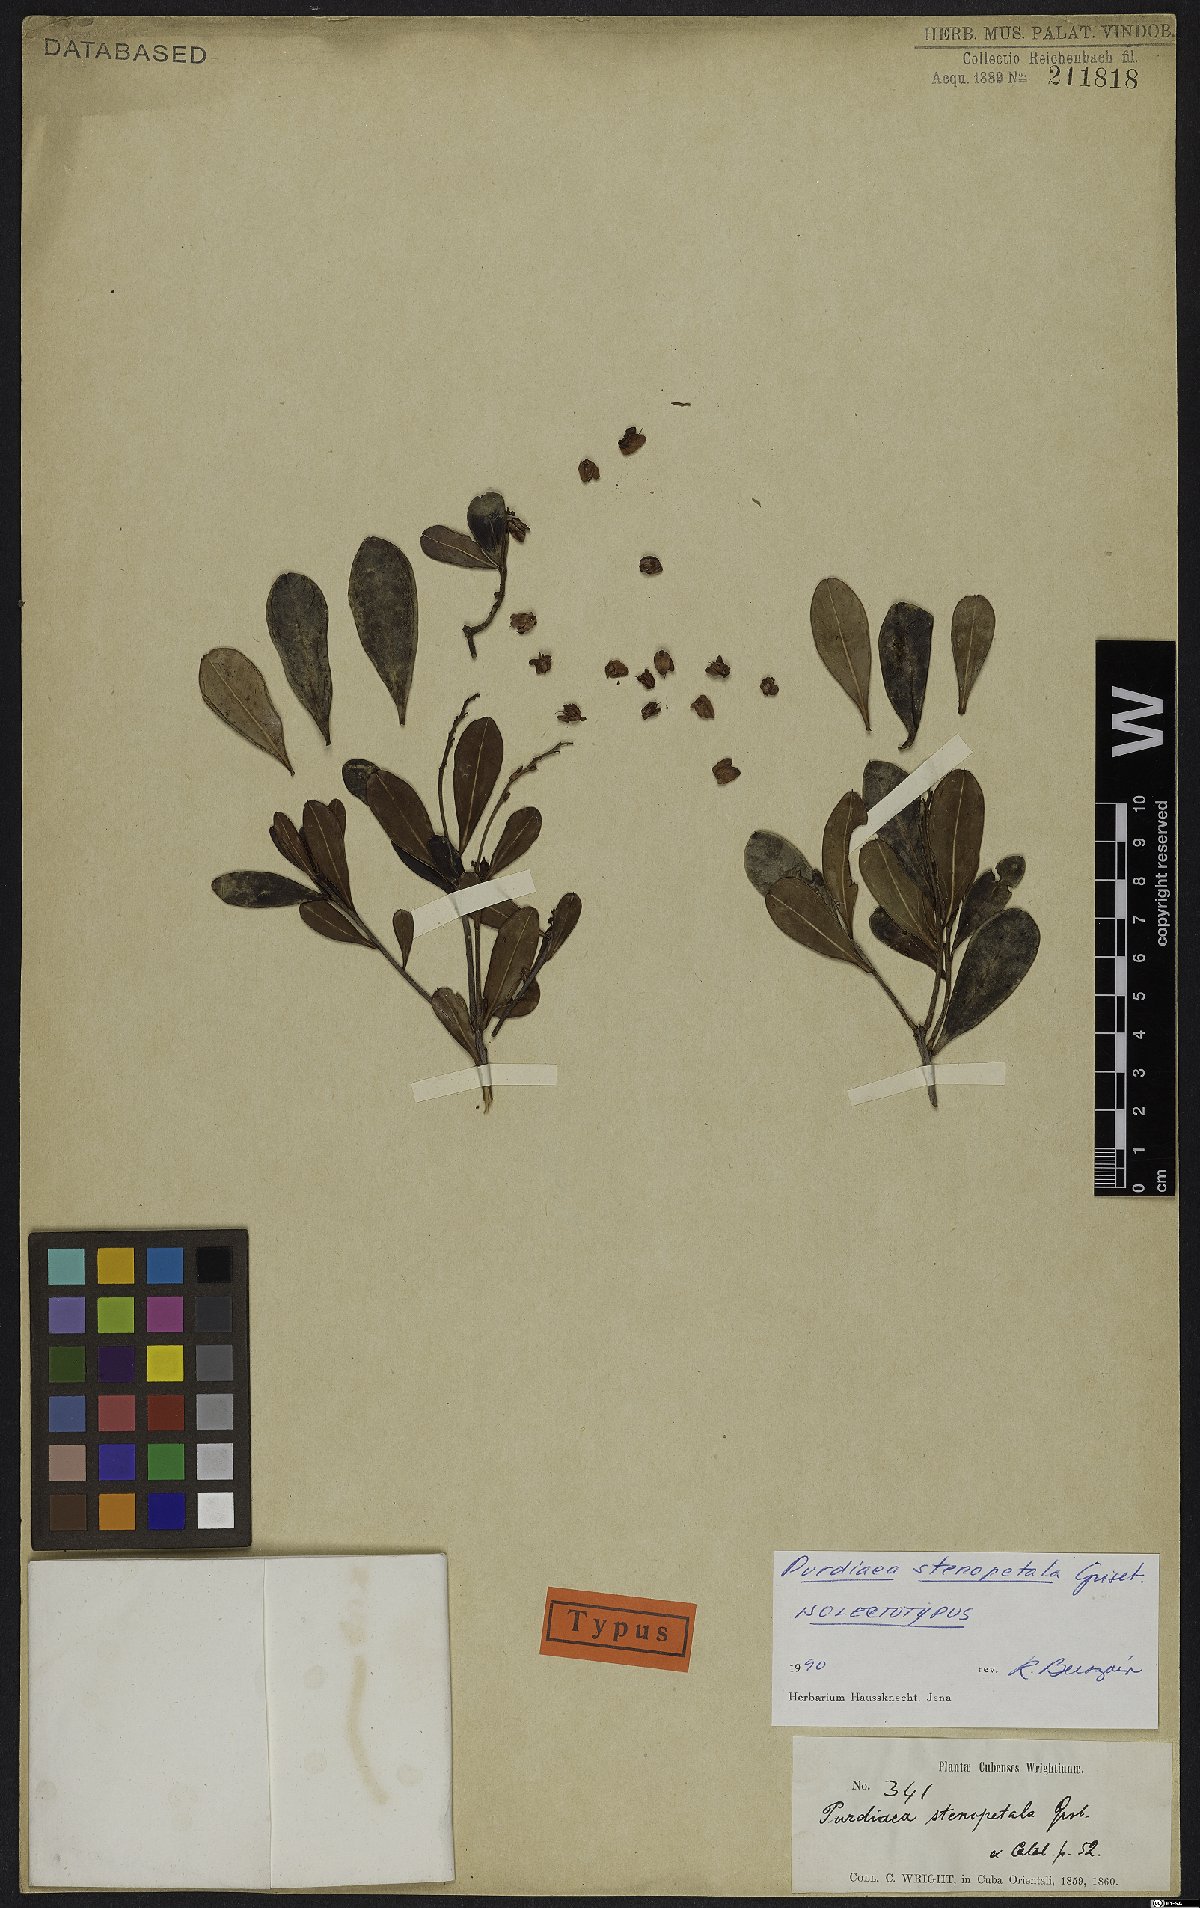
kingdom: Plantae
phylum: Tracheophyta
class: Magnoliopsida
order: Ericales
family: Clethraceae
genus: Purdiaea
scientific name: Purdiaea stenopetala
